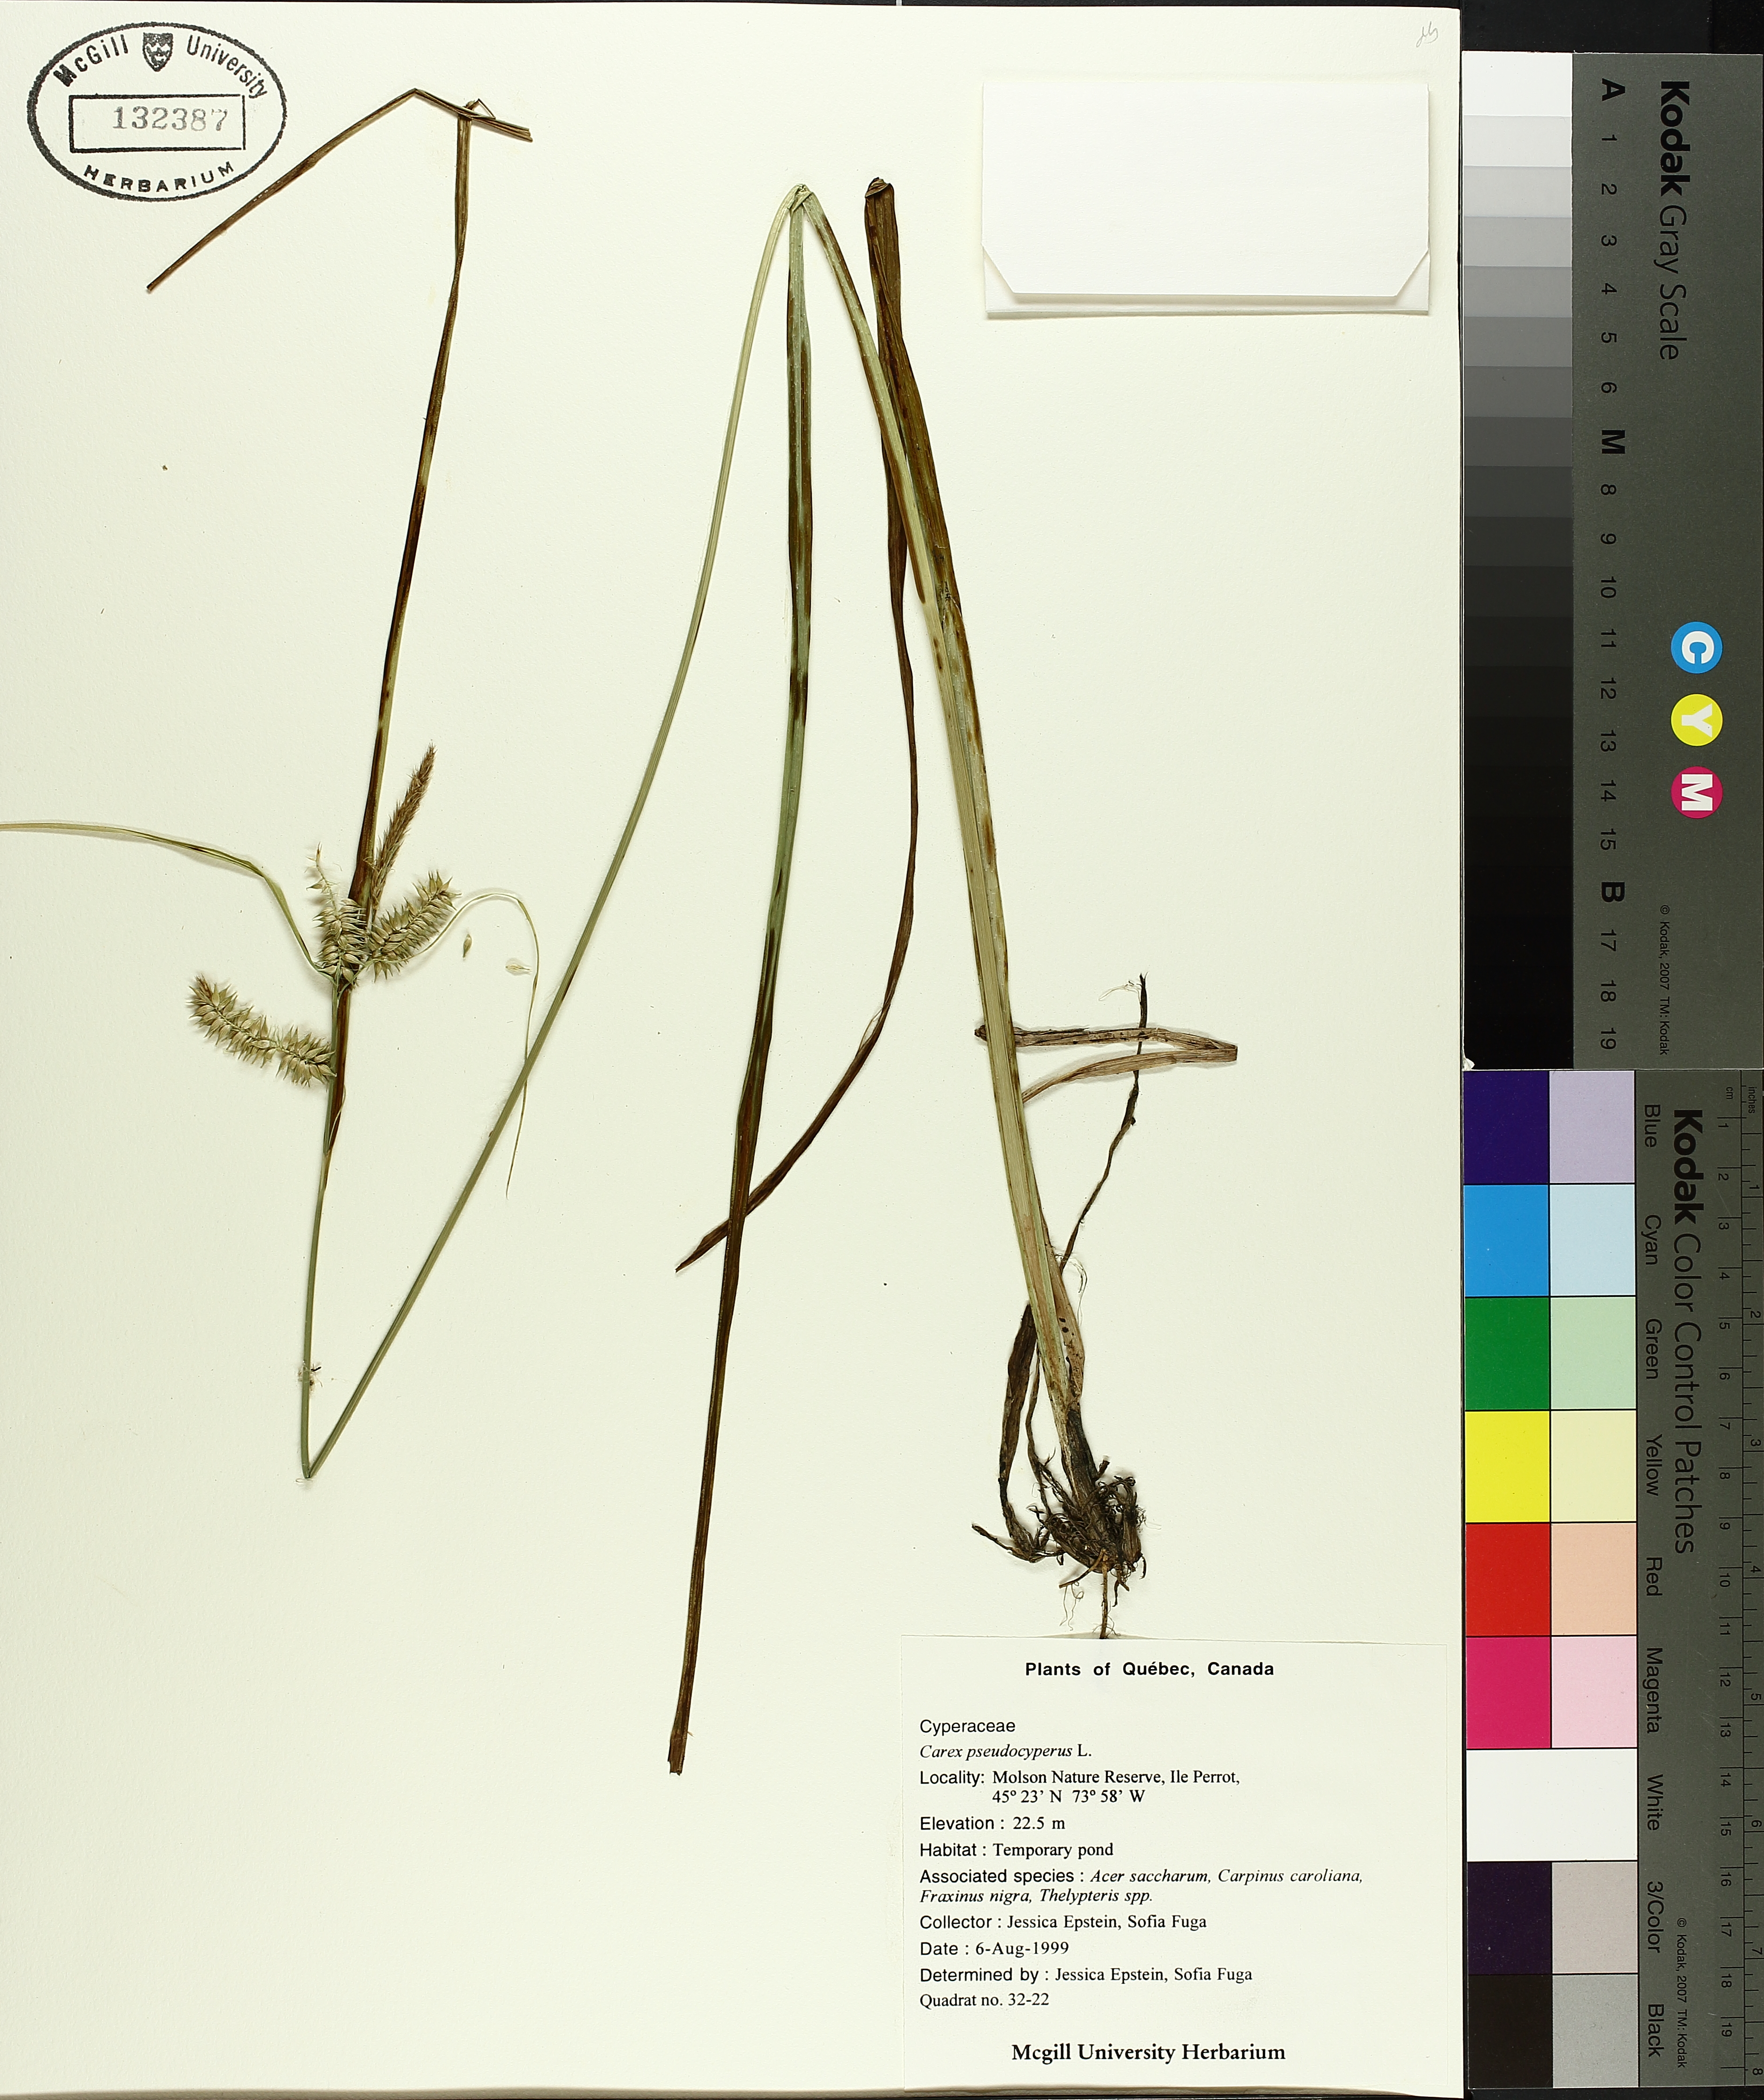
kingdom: Plantae
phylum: Tracheophyta
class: Liliopsida
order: Poales
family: Cyperaceae
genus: Carex
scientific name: Carex pseudocyperus
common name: Cyperus sedge
